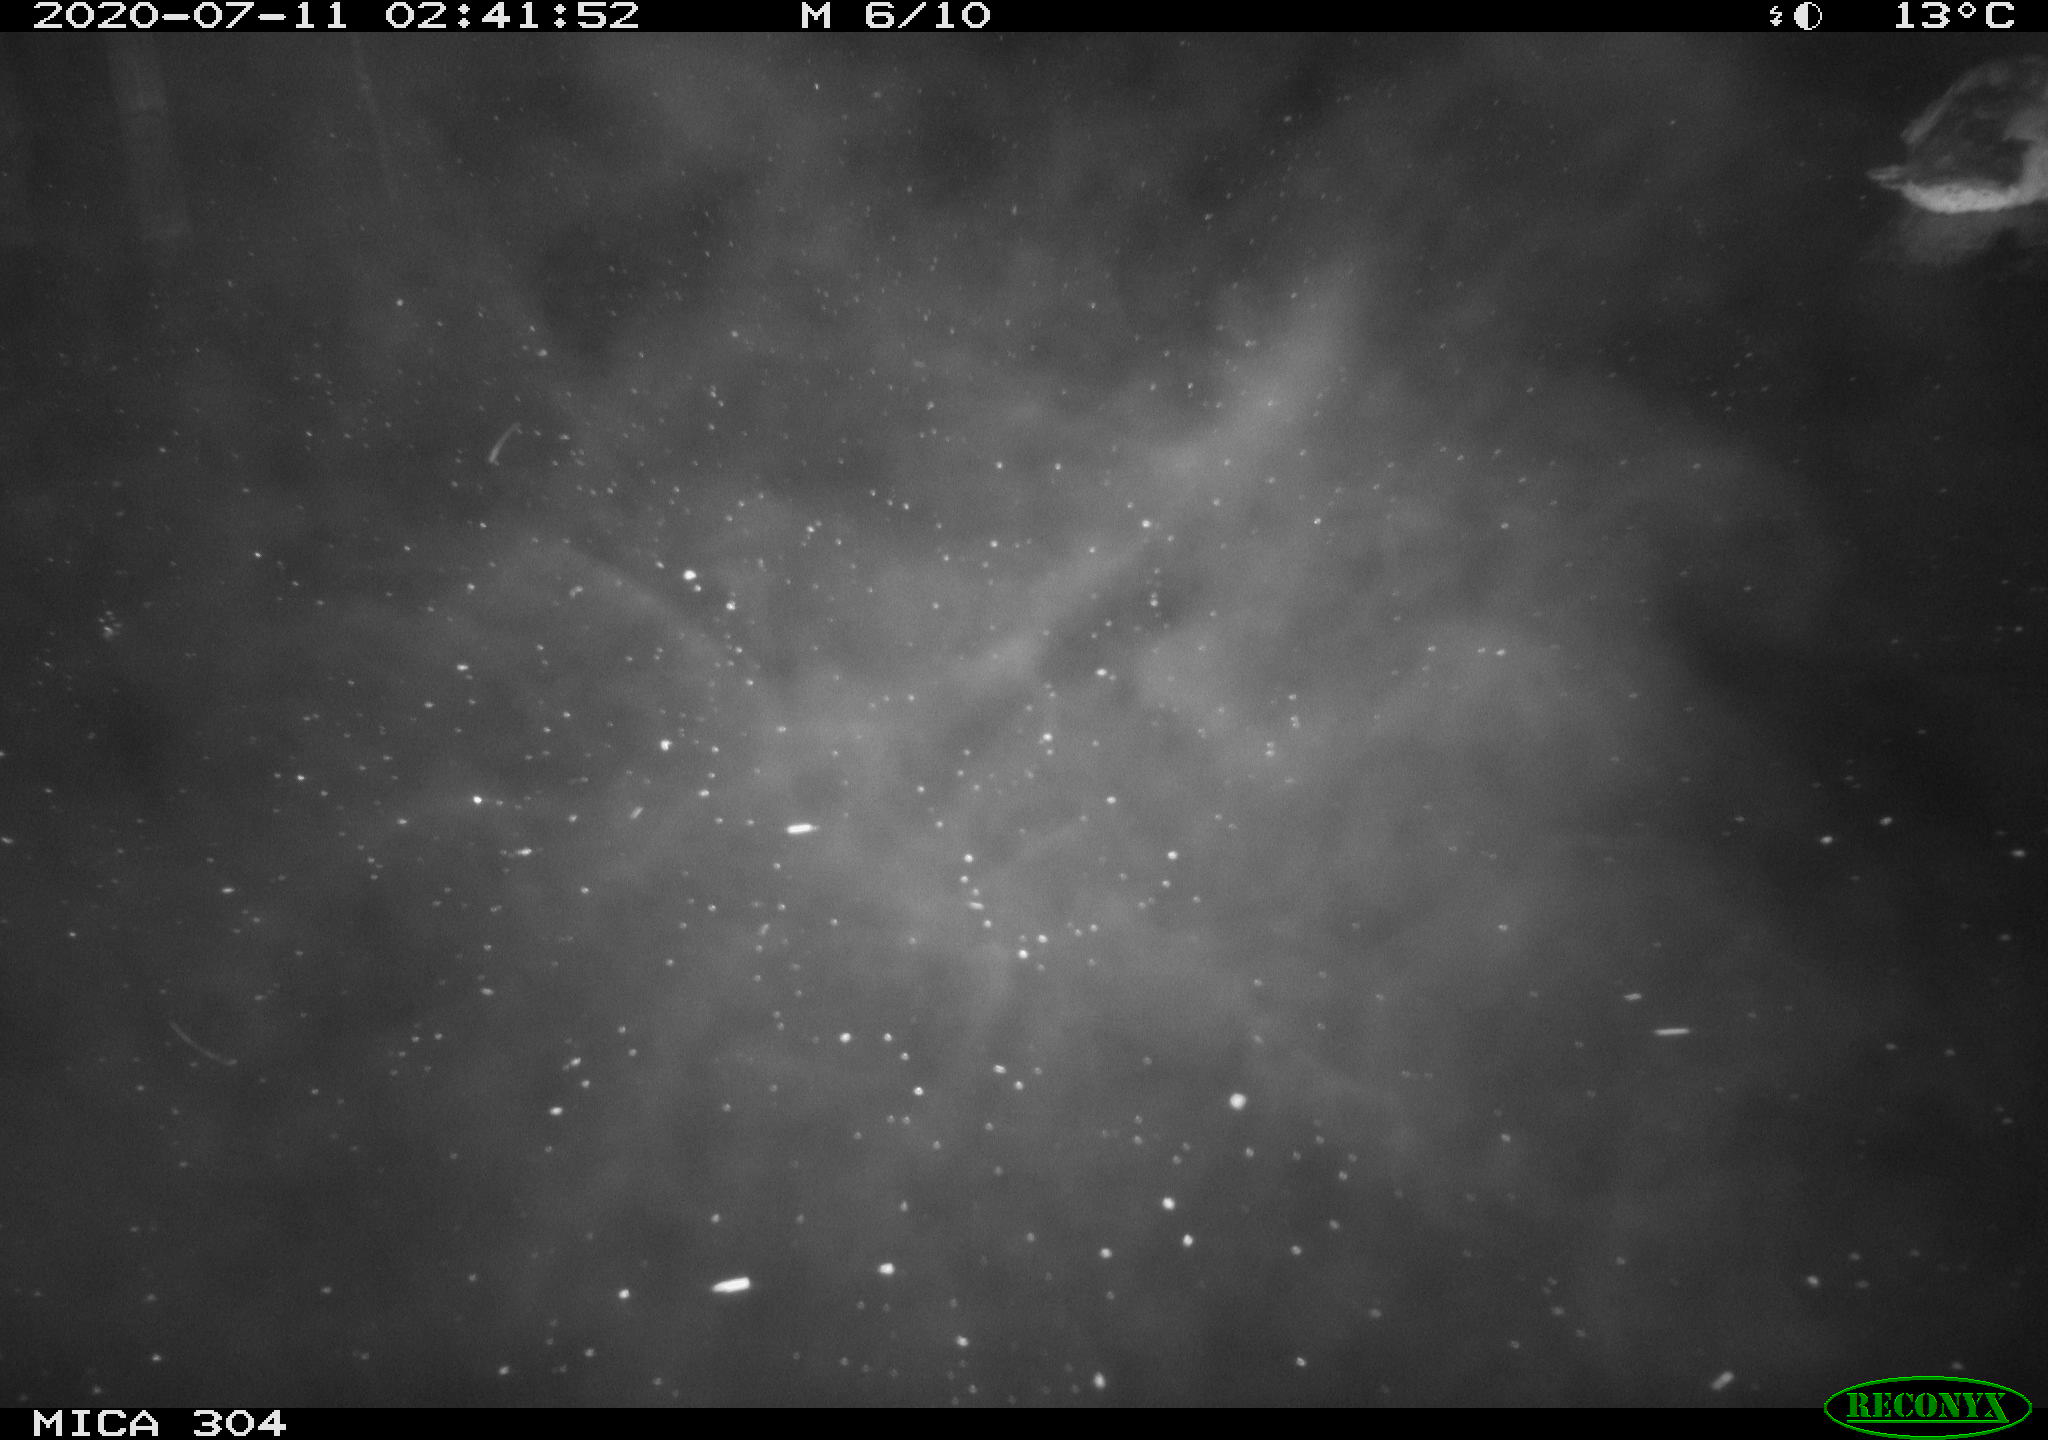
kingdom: Animalia
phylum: Chordata
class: Aves
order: Anseriformes
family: Anatidae
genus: Anas
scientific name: Anas platyrhynchos
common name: Mallard
